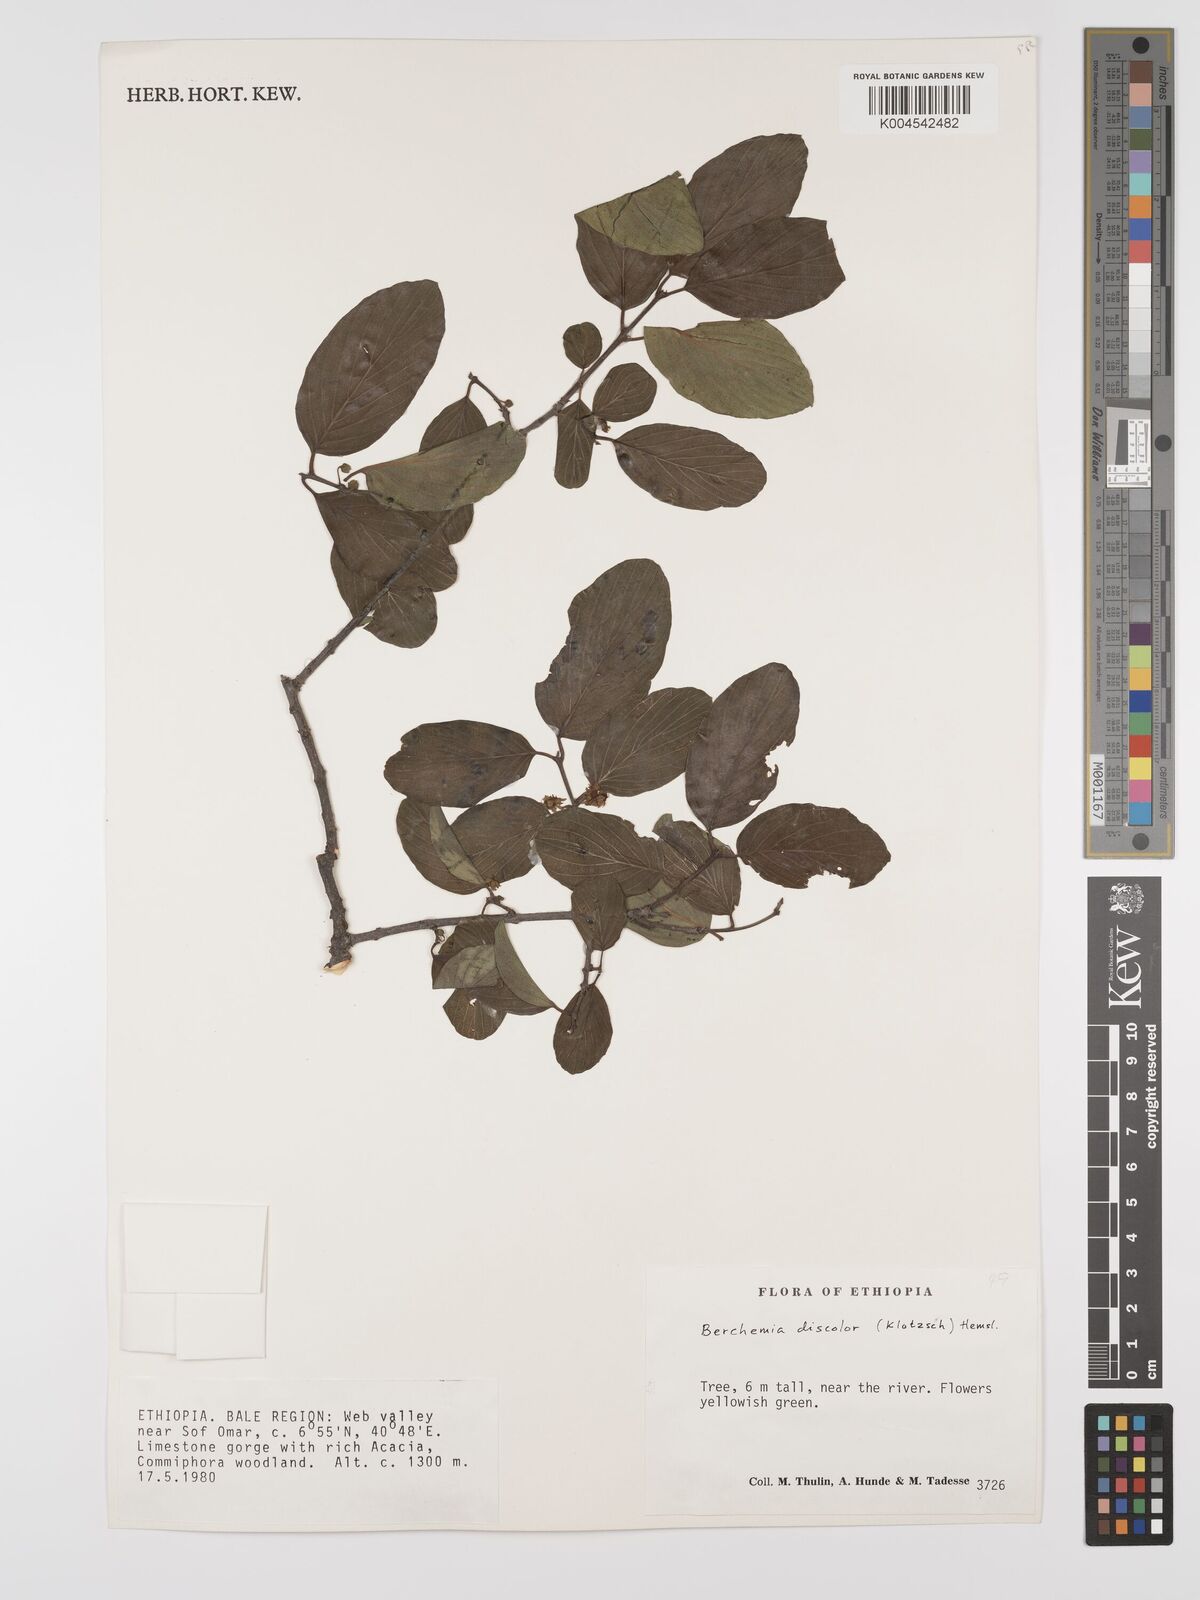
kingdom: Plantae
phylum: Tracheophyta
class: Magnoliopsida
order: Rosales
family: Rhamnaceae
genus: Phyllogeiton
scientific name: Phyllogeiton discolor
